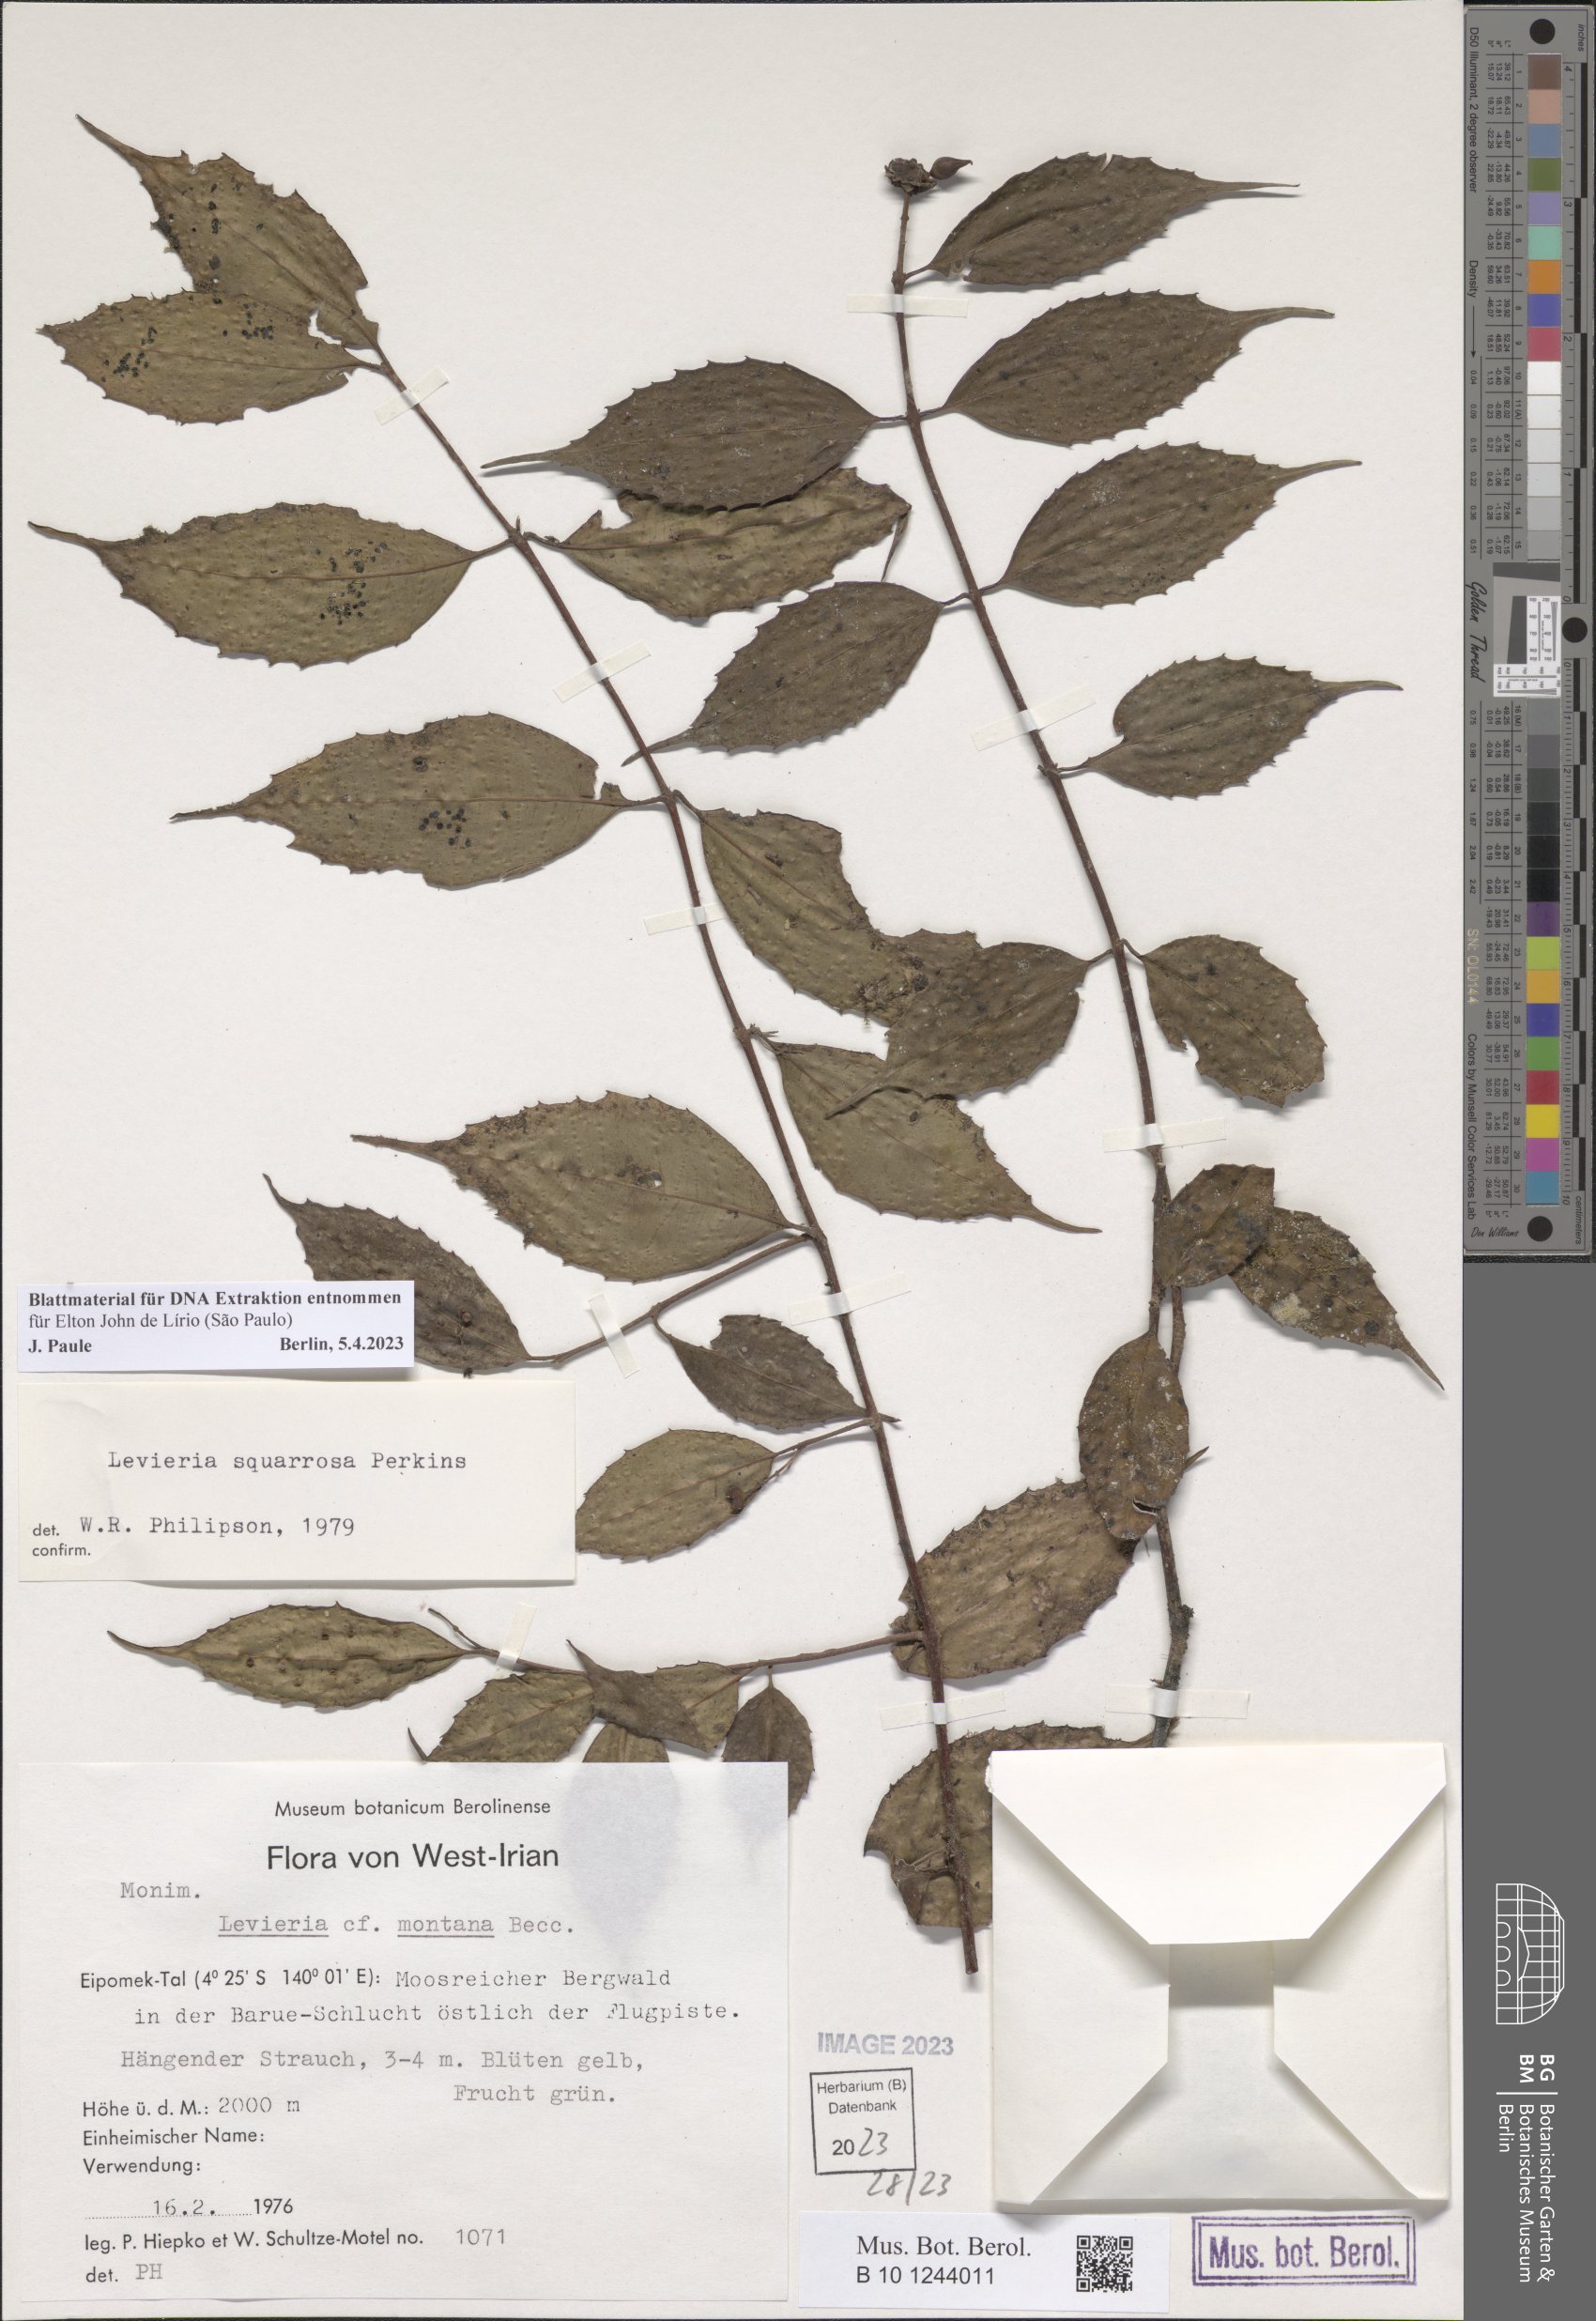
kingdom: Plantae
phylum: Tracheophyta
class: Magnoliopsida
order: Laurales
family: Monimiaceae
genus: Levieria
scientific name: Levieria squarrosa
